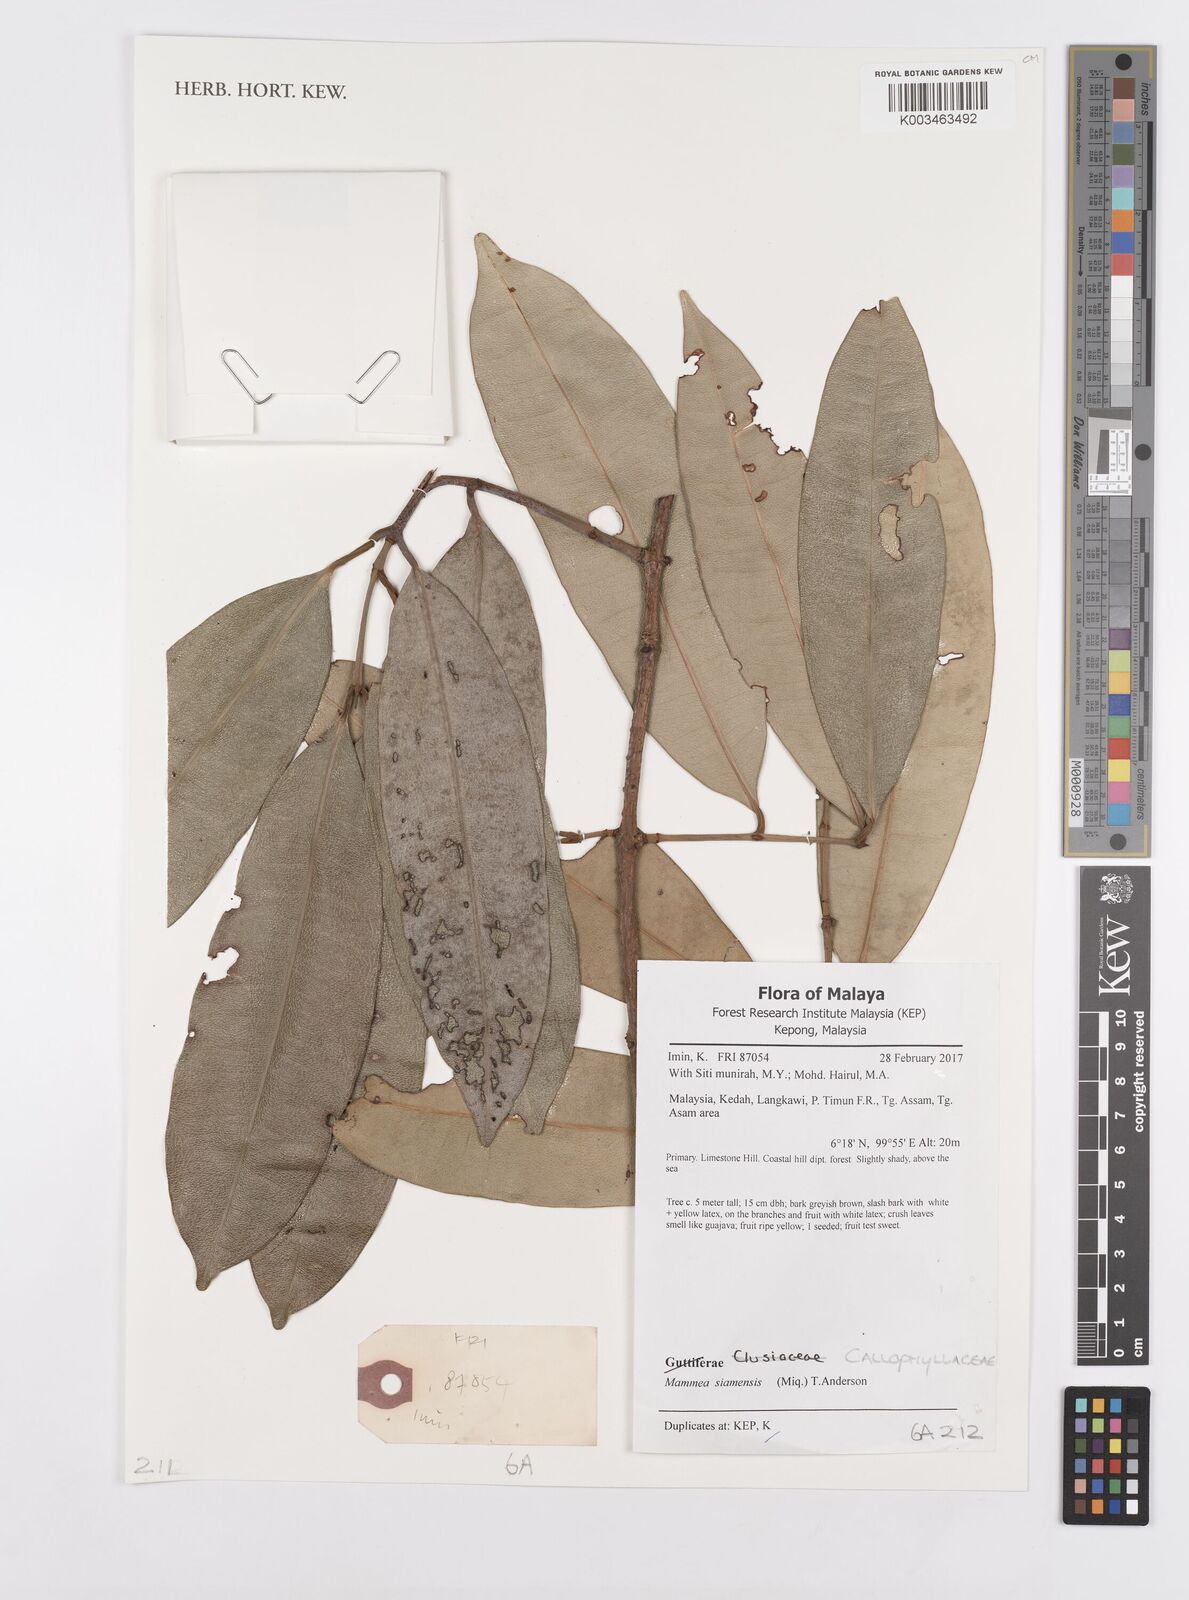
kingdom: Plantae
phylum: Tracheophyta
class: Magnoliopsida
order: Malpighiales
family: Calophyllaceae
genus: Mammea
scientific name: Mammea siamensis
